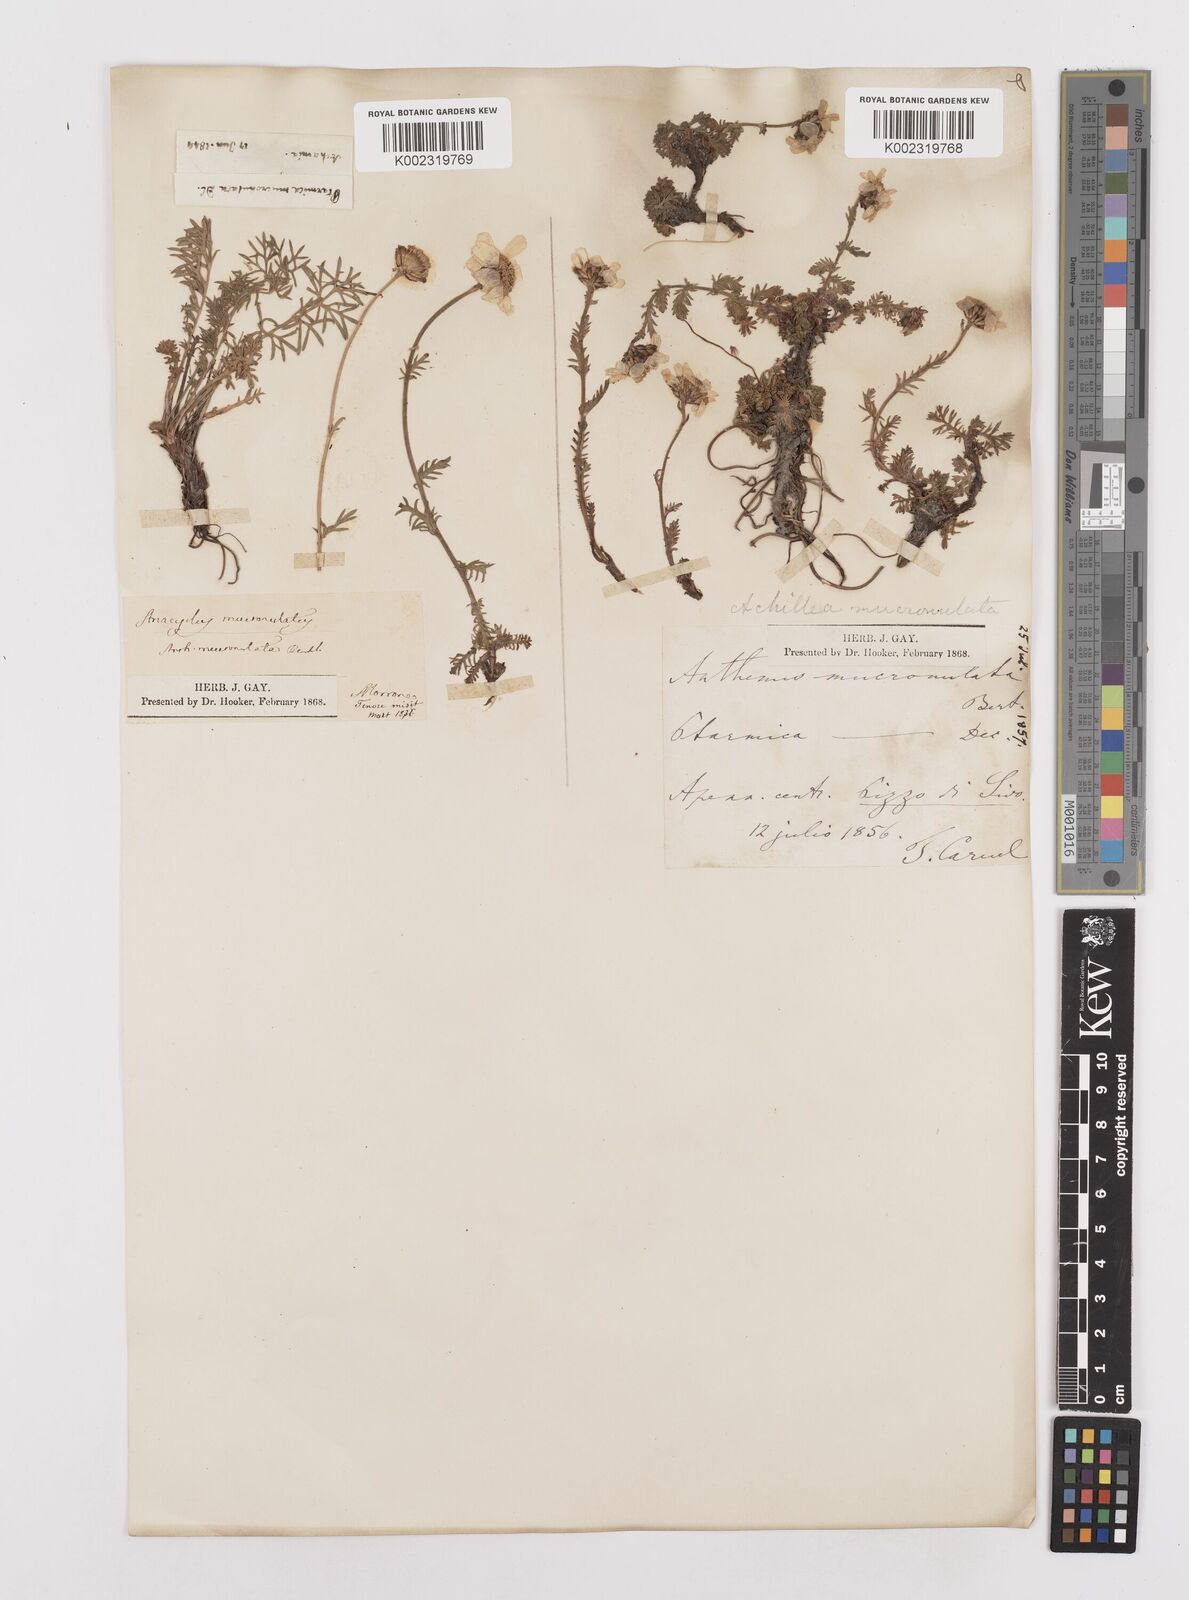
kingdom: Plantae
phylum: Tracheophyta
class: Magnoliopsida
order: Asterales
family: Asteraceae
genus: Achillea
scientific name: Achillea barrelieri
